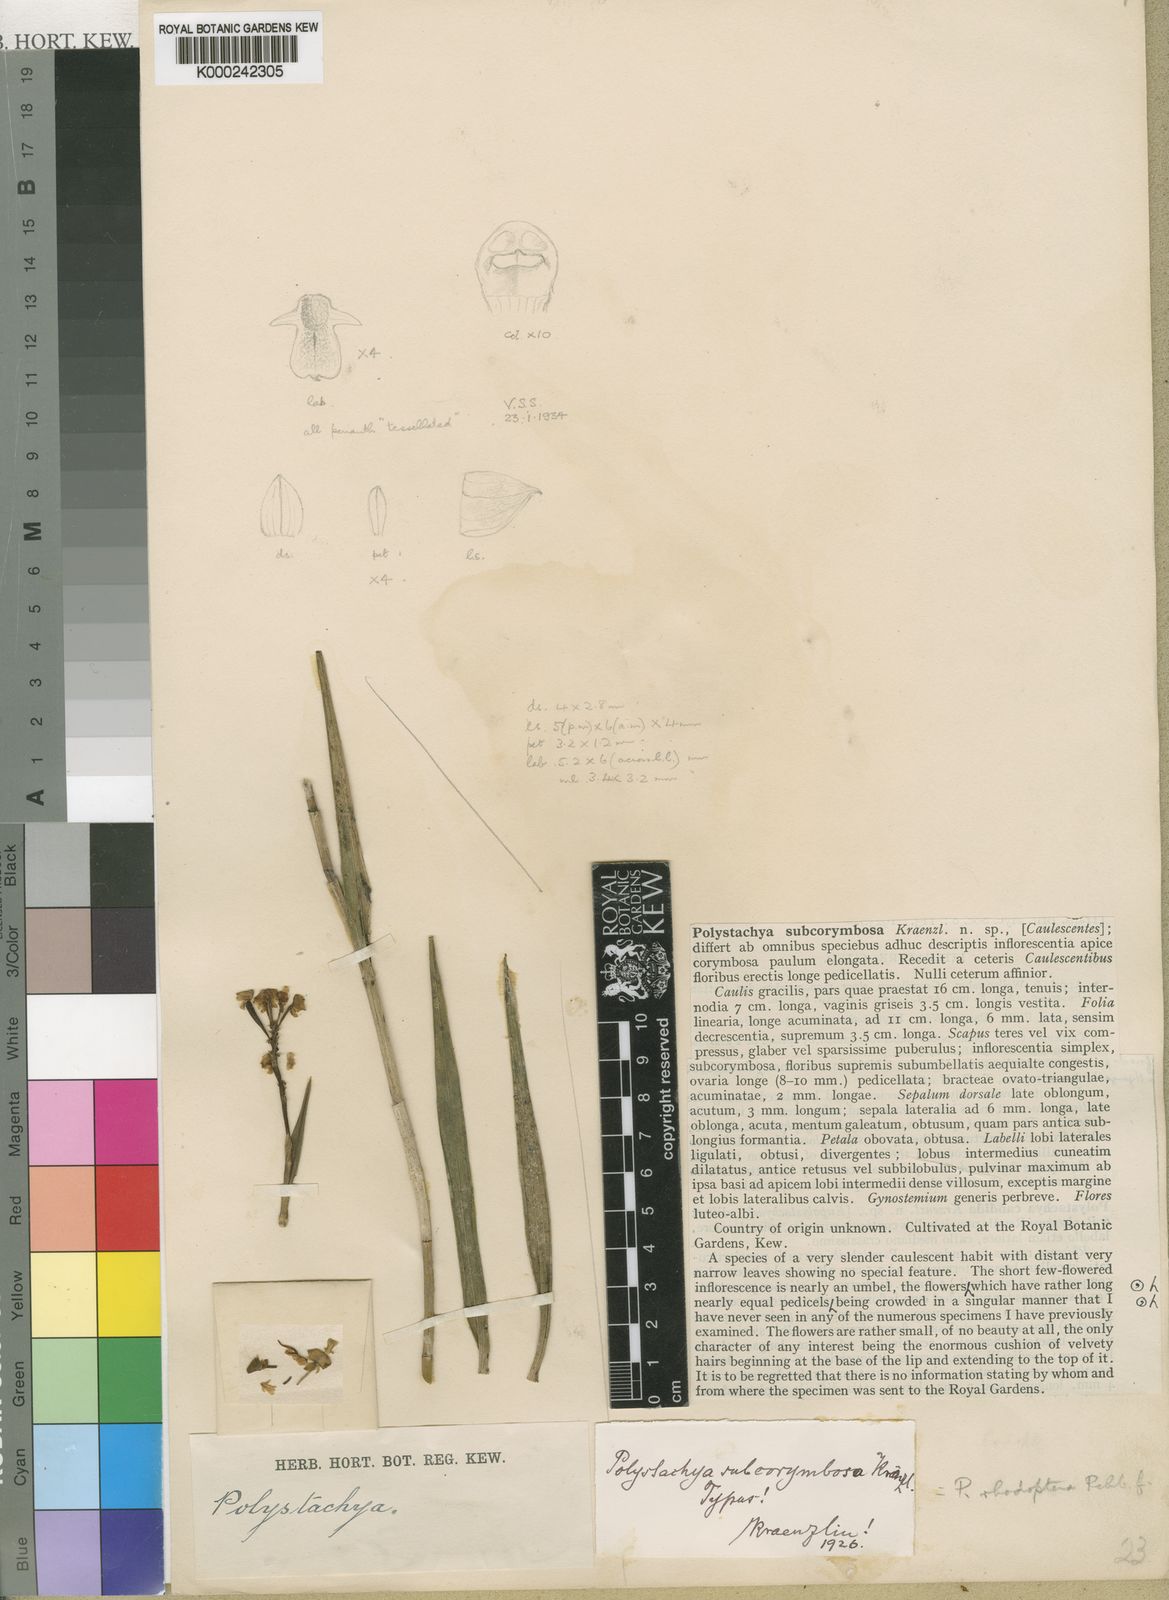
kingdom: Plantae
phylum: Tracheophyta
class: Liliopsida
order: Asparagales
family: Orchidaceae
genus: Polystachya
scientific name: Polystachya rhodoptera
